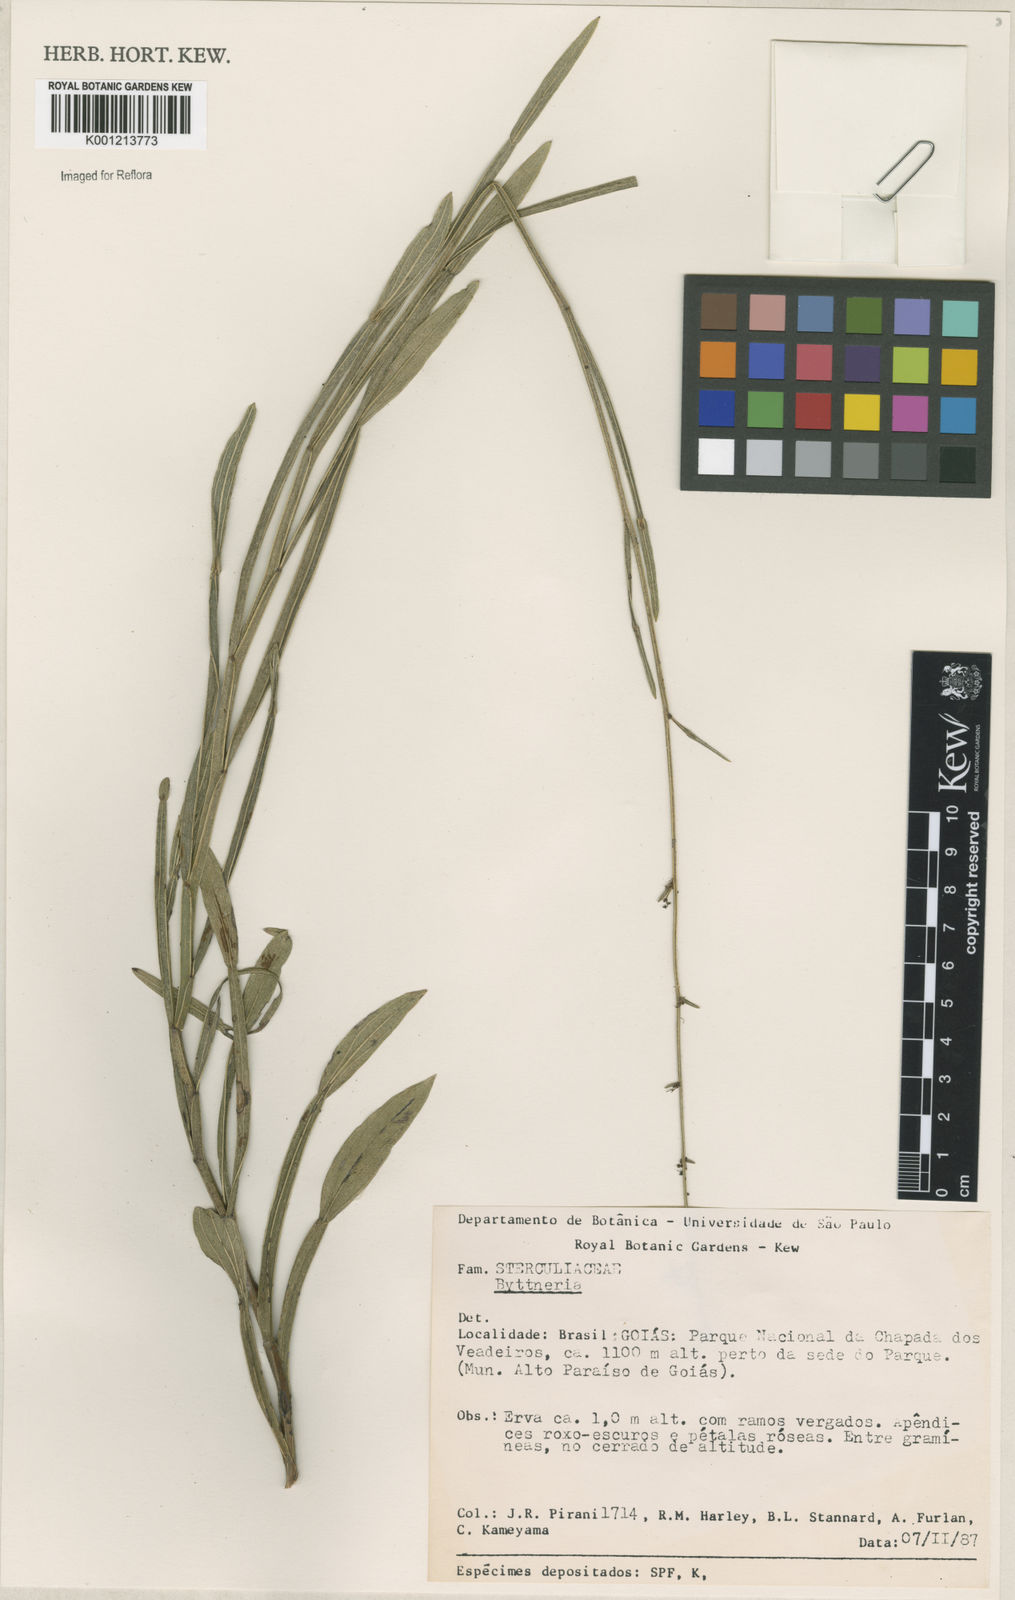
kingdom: Plantae
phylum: Tracheophyta
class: Magnoliopsida
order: Malvales
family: Malvaceae
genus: Byttneria
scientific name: Byttneria
